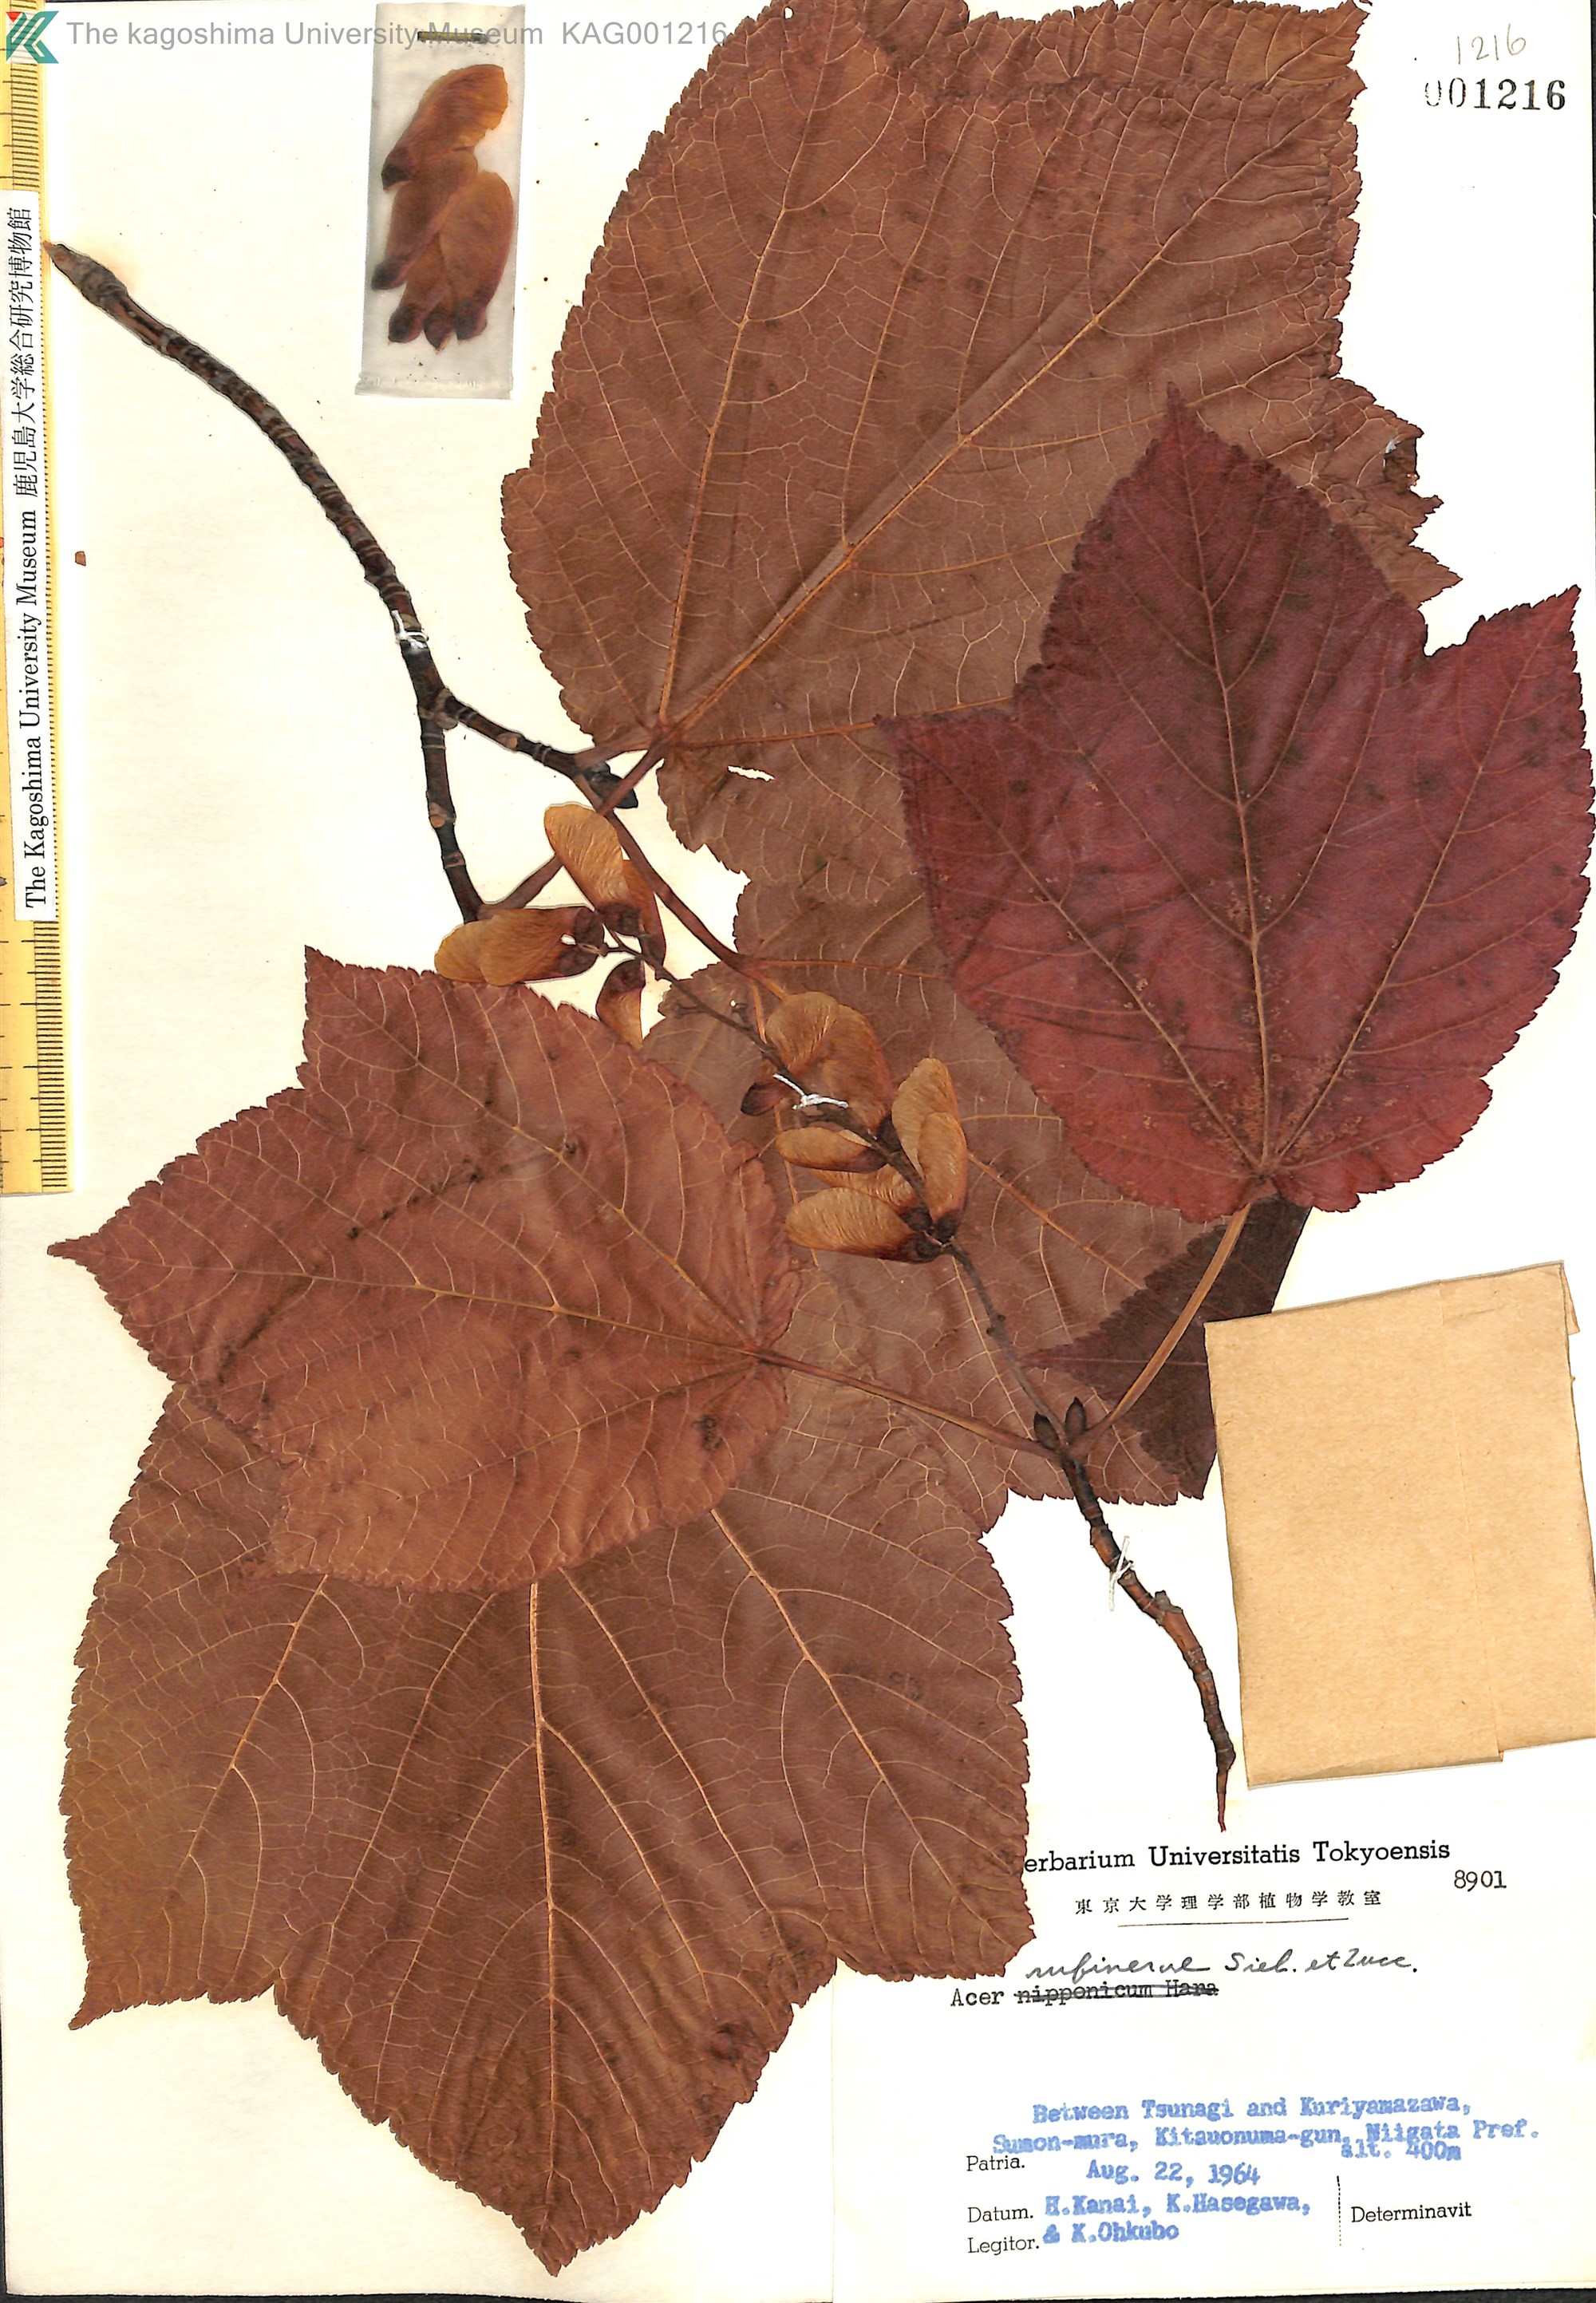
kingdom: Plantae
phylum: Tracheophyta
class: Magnoliopsida
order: Sapindales
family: Sapindaceae
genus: Acer
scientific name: Acer rufinerve
